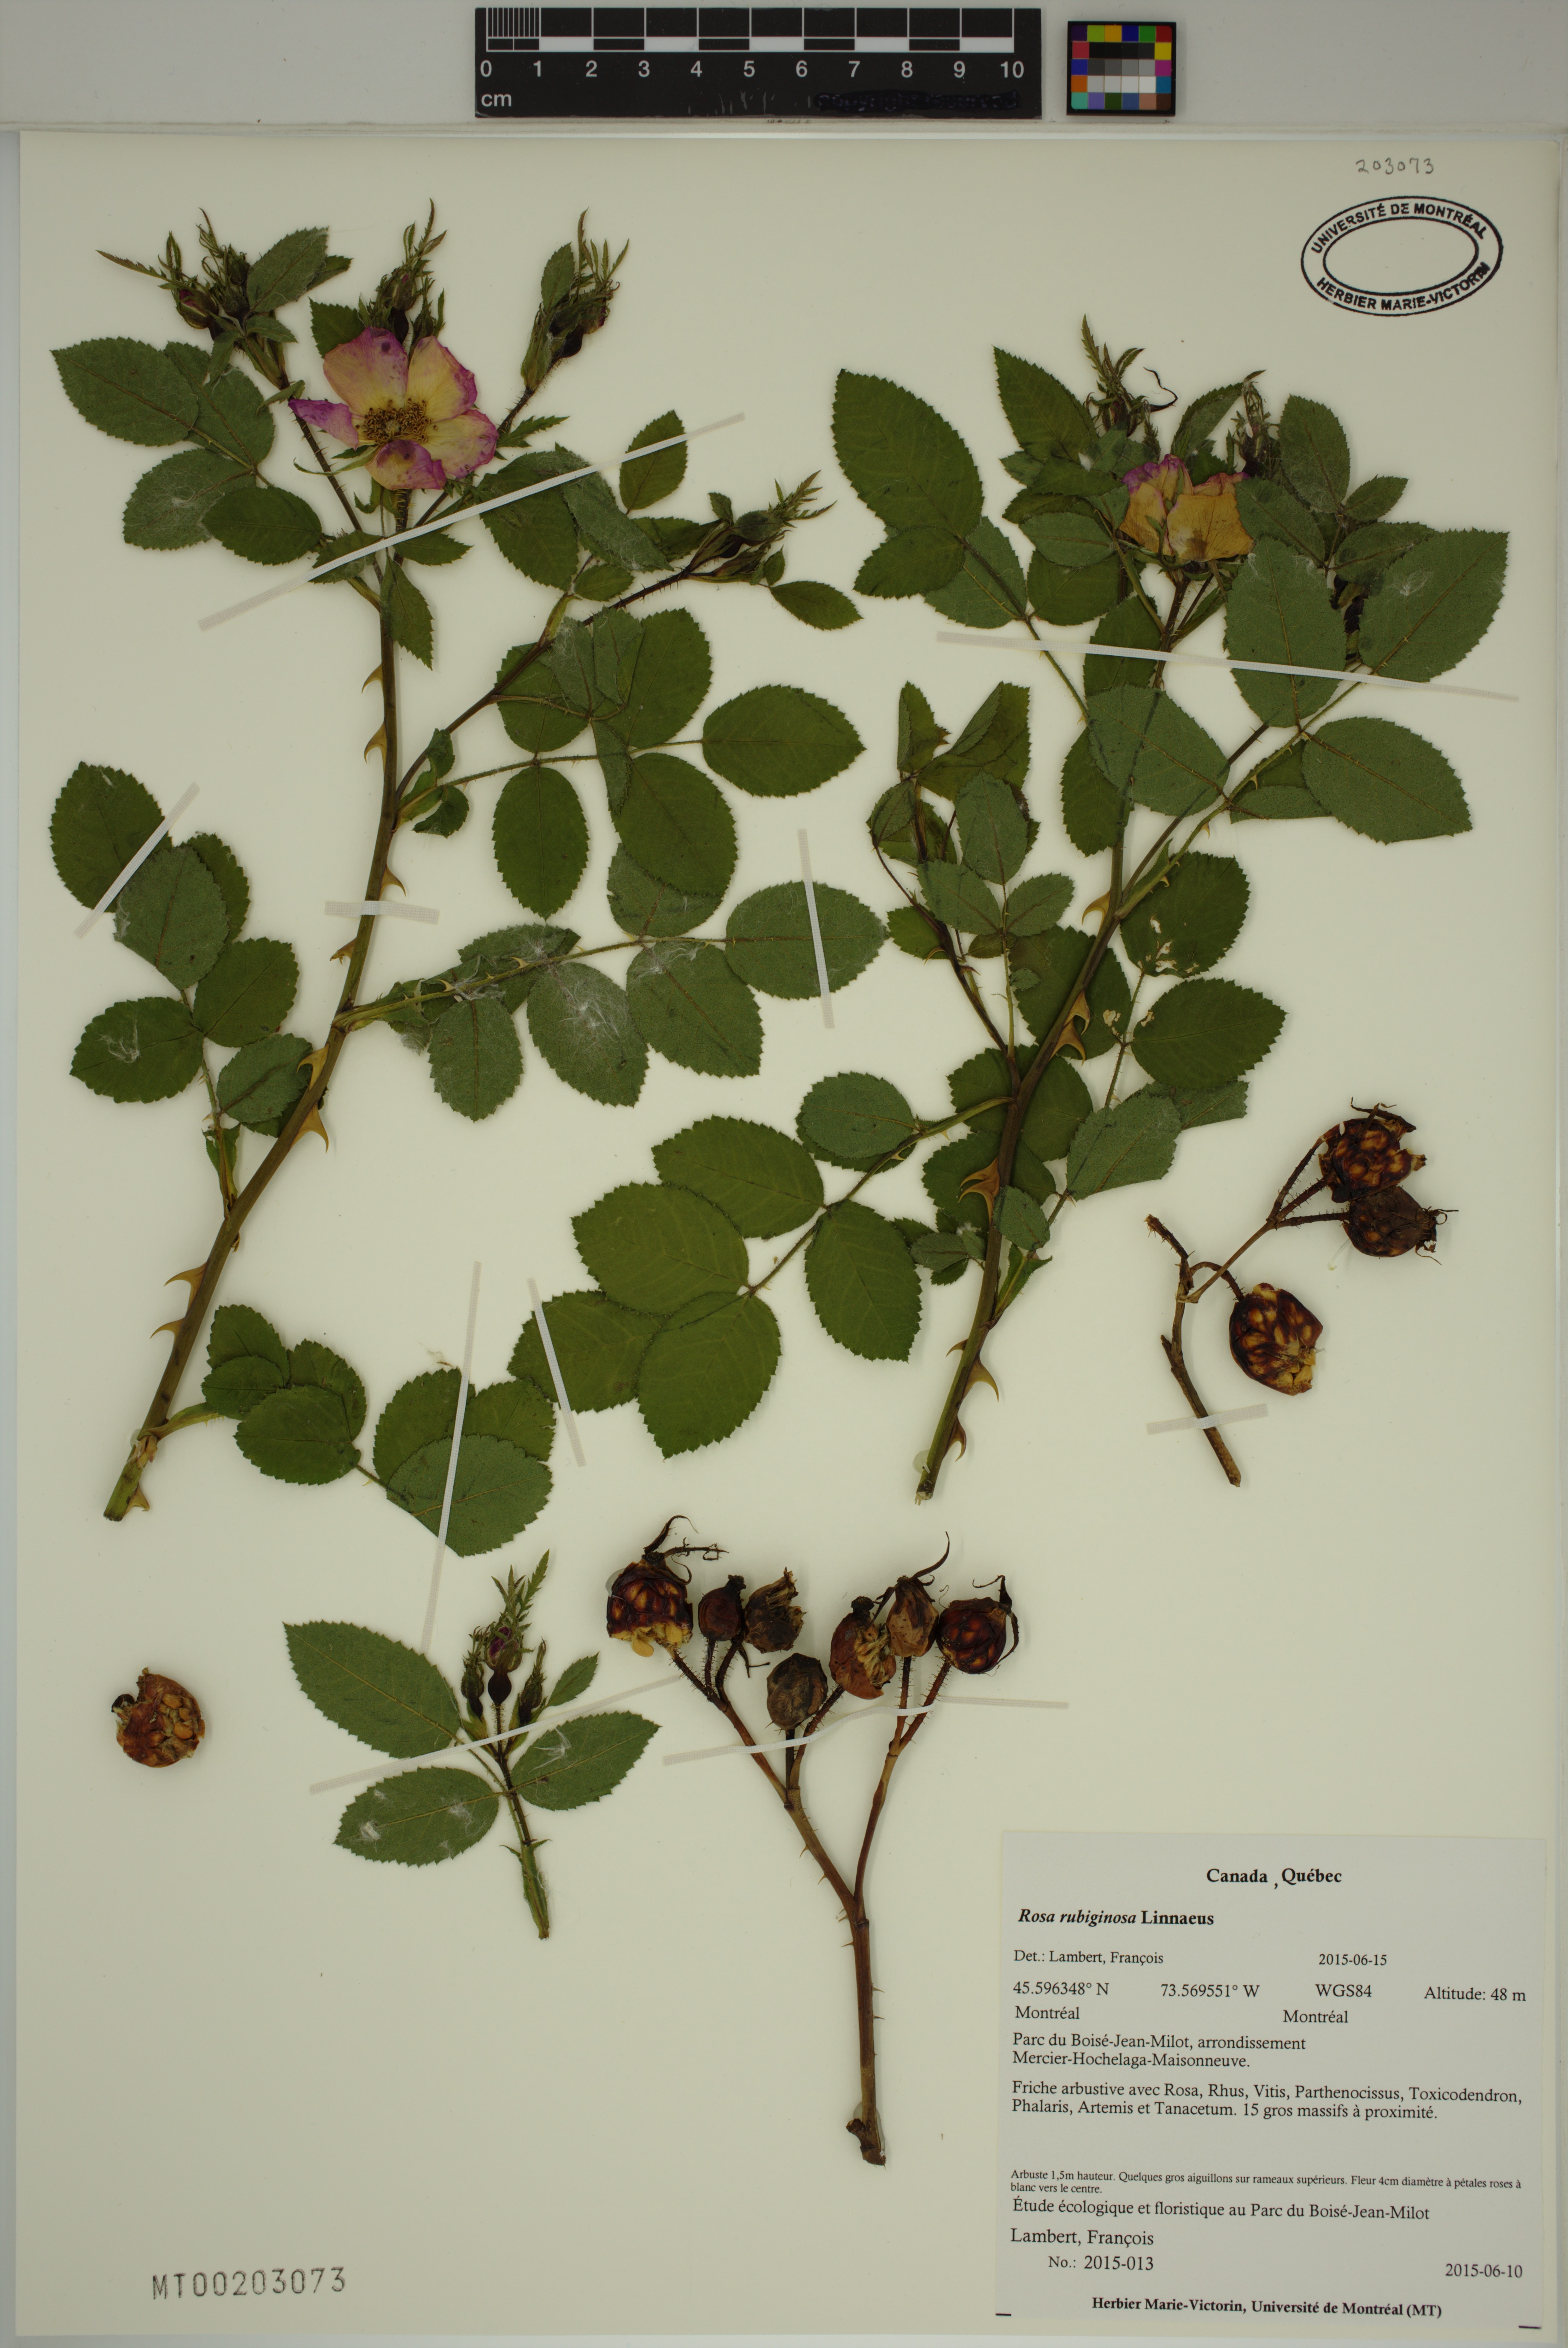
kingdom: Plantae
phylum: Tracheophyta
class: Magnoliopsida
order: Rosales
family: Rosaceae
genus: Rosa
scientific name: Rosa rubiginosa
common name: Sweet-briar
